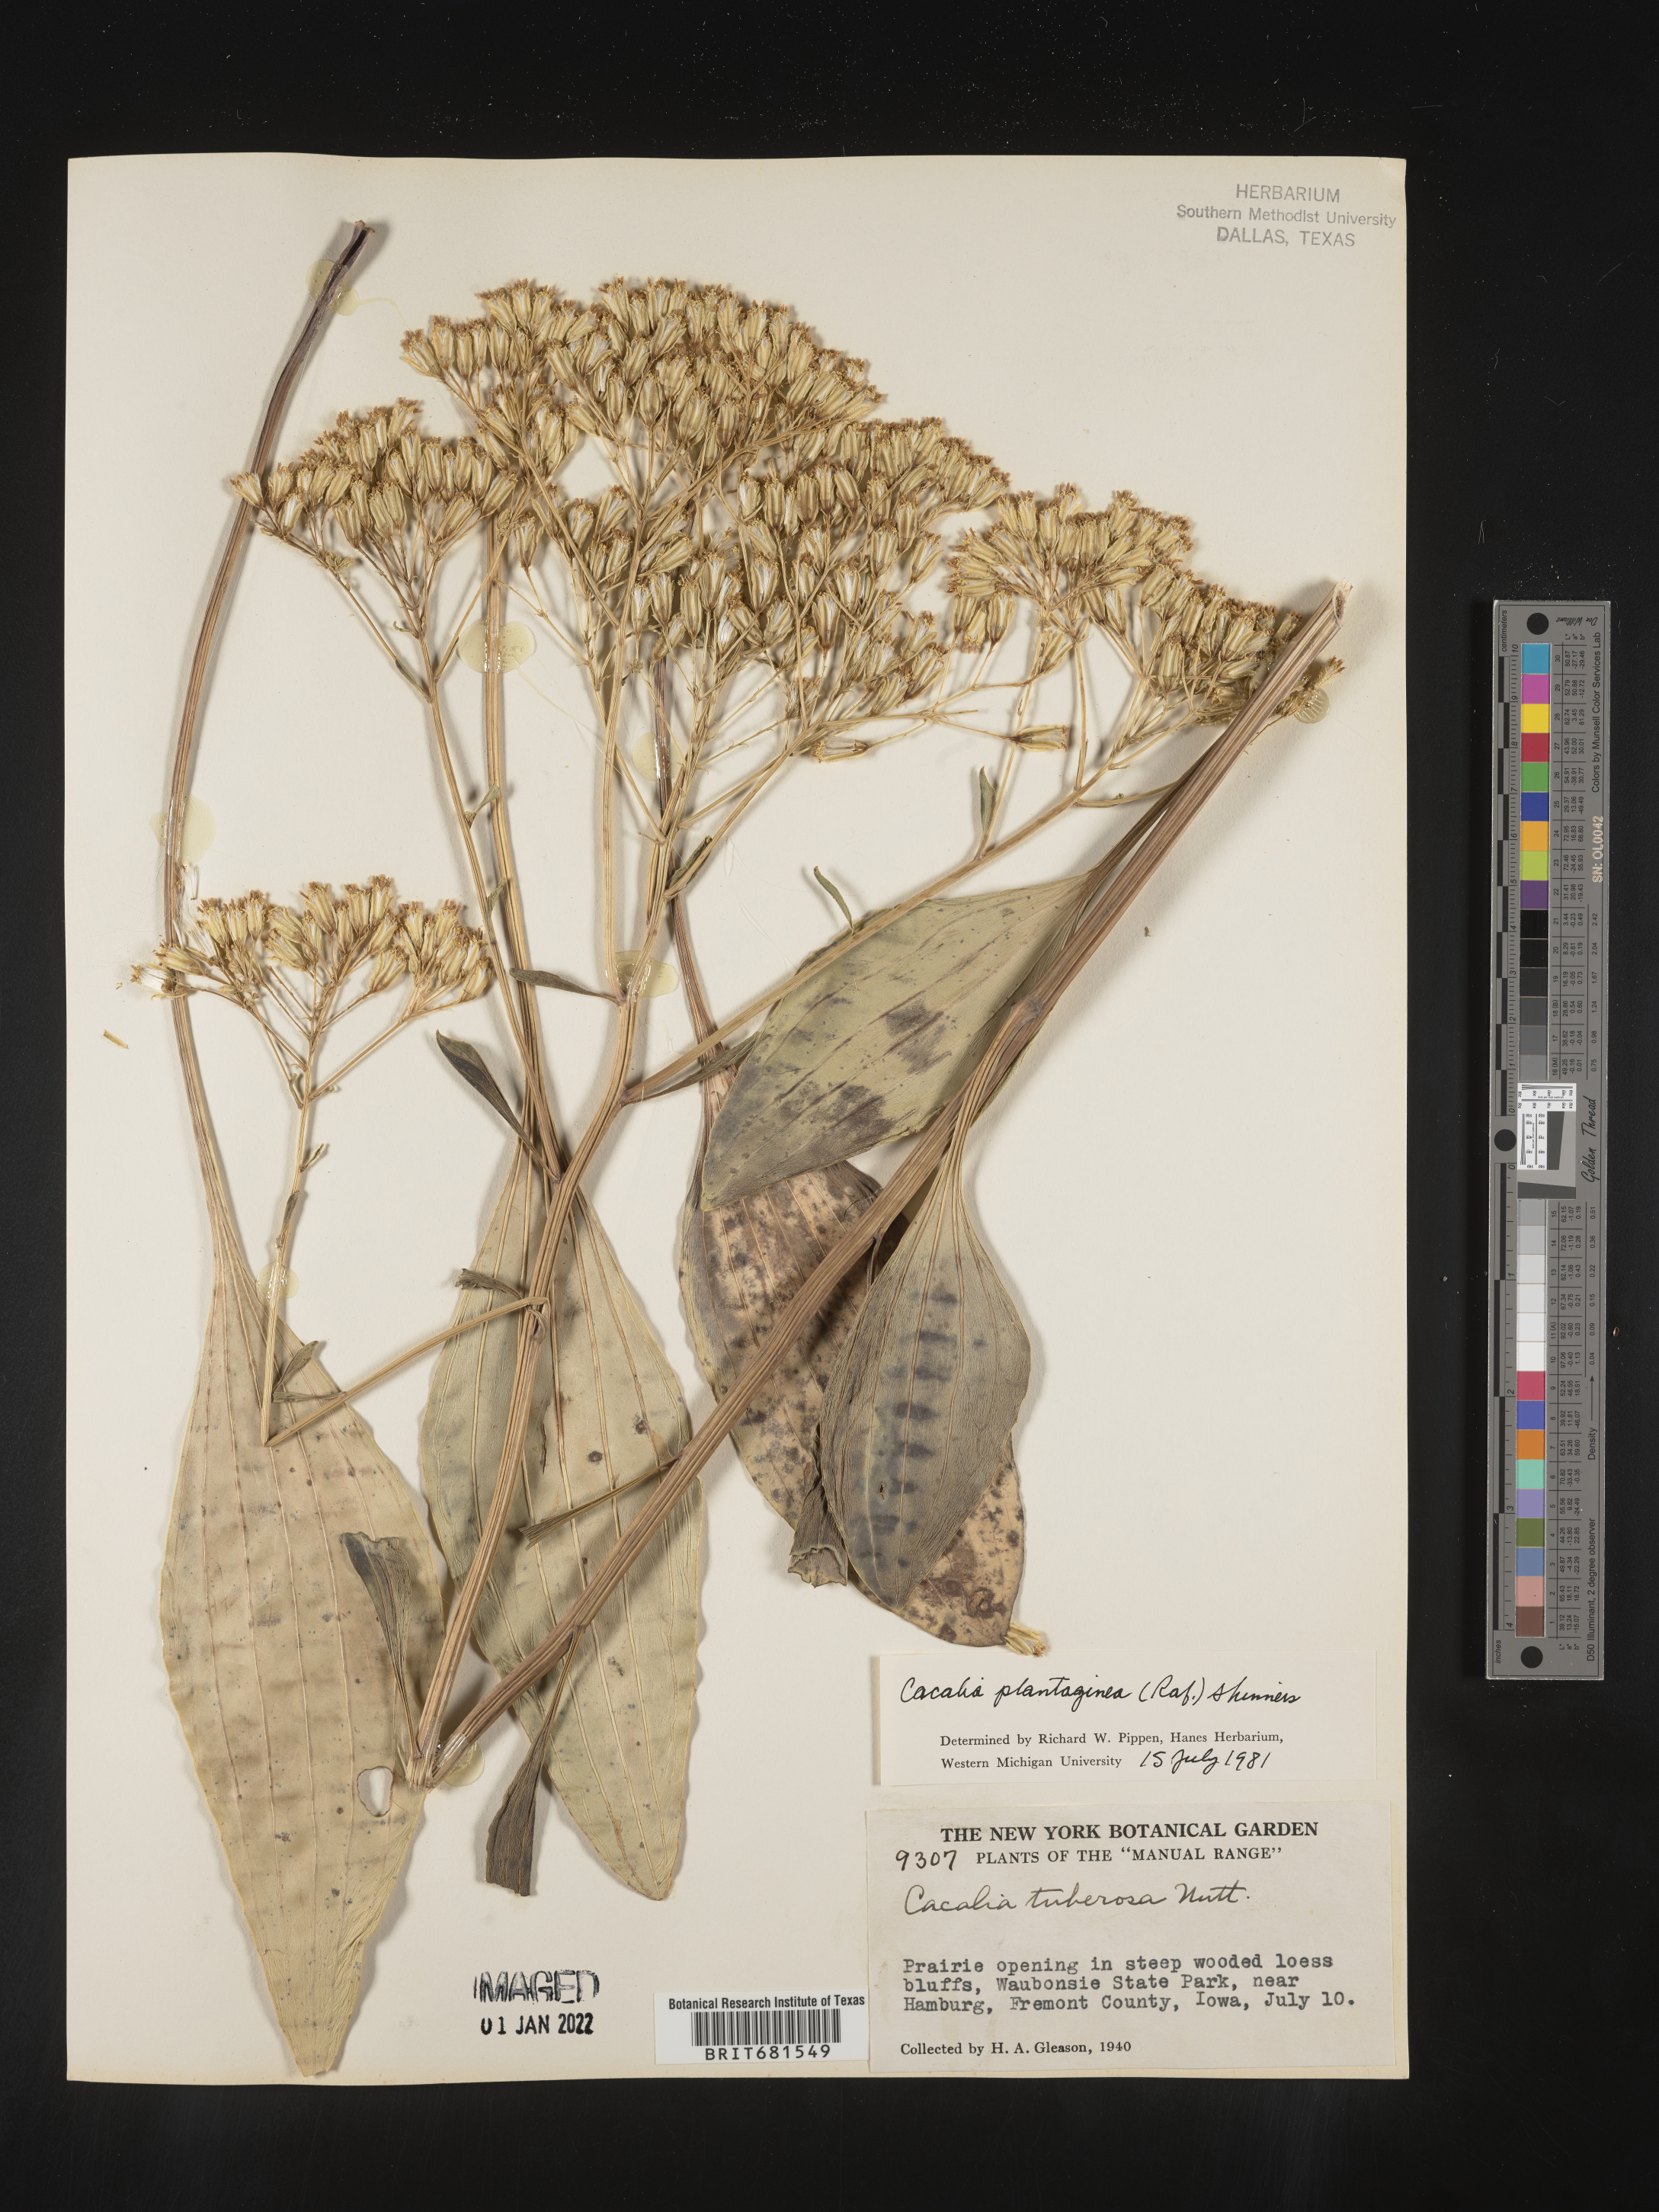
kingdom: Plantae
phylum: Tracheophyta
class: Magnoliopsida
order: Asterales
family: Asteraceae
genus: Arnoglossum
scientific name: Arnoglossum plantagineum
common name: Groove-stemmed indian-plantain
